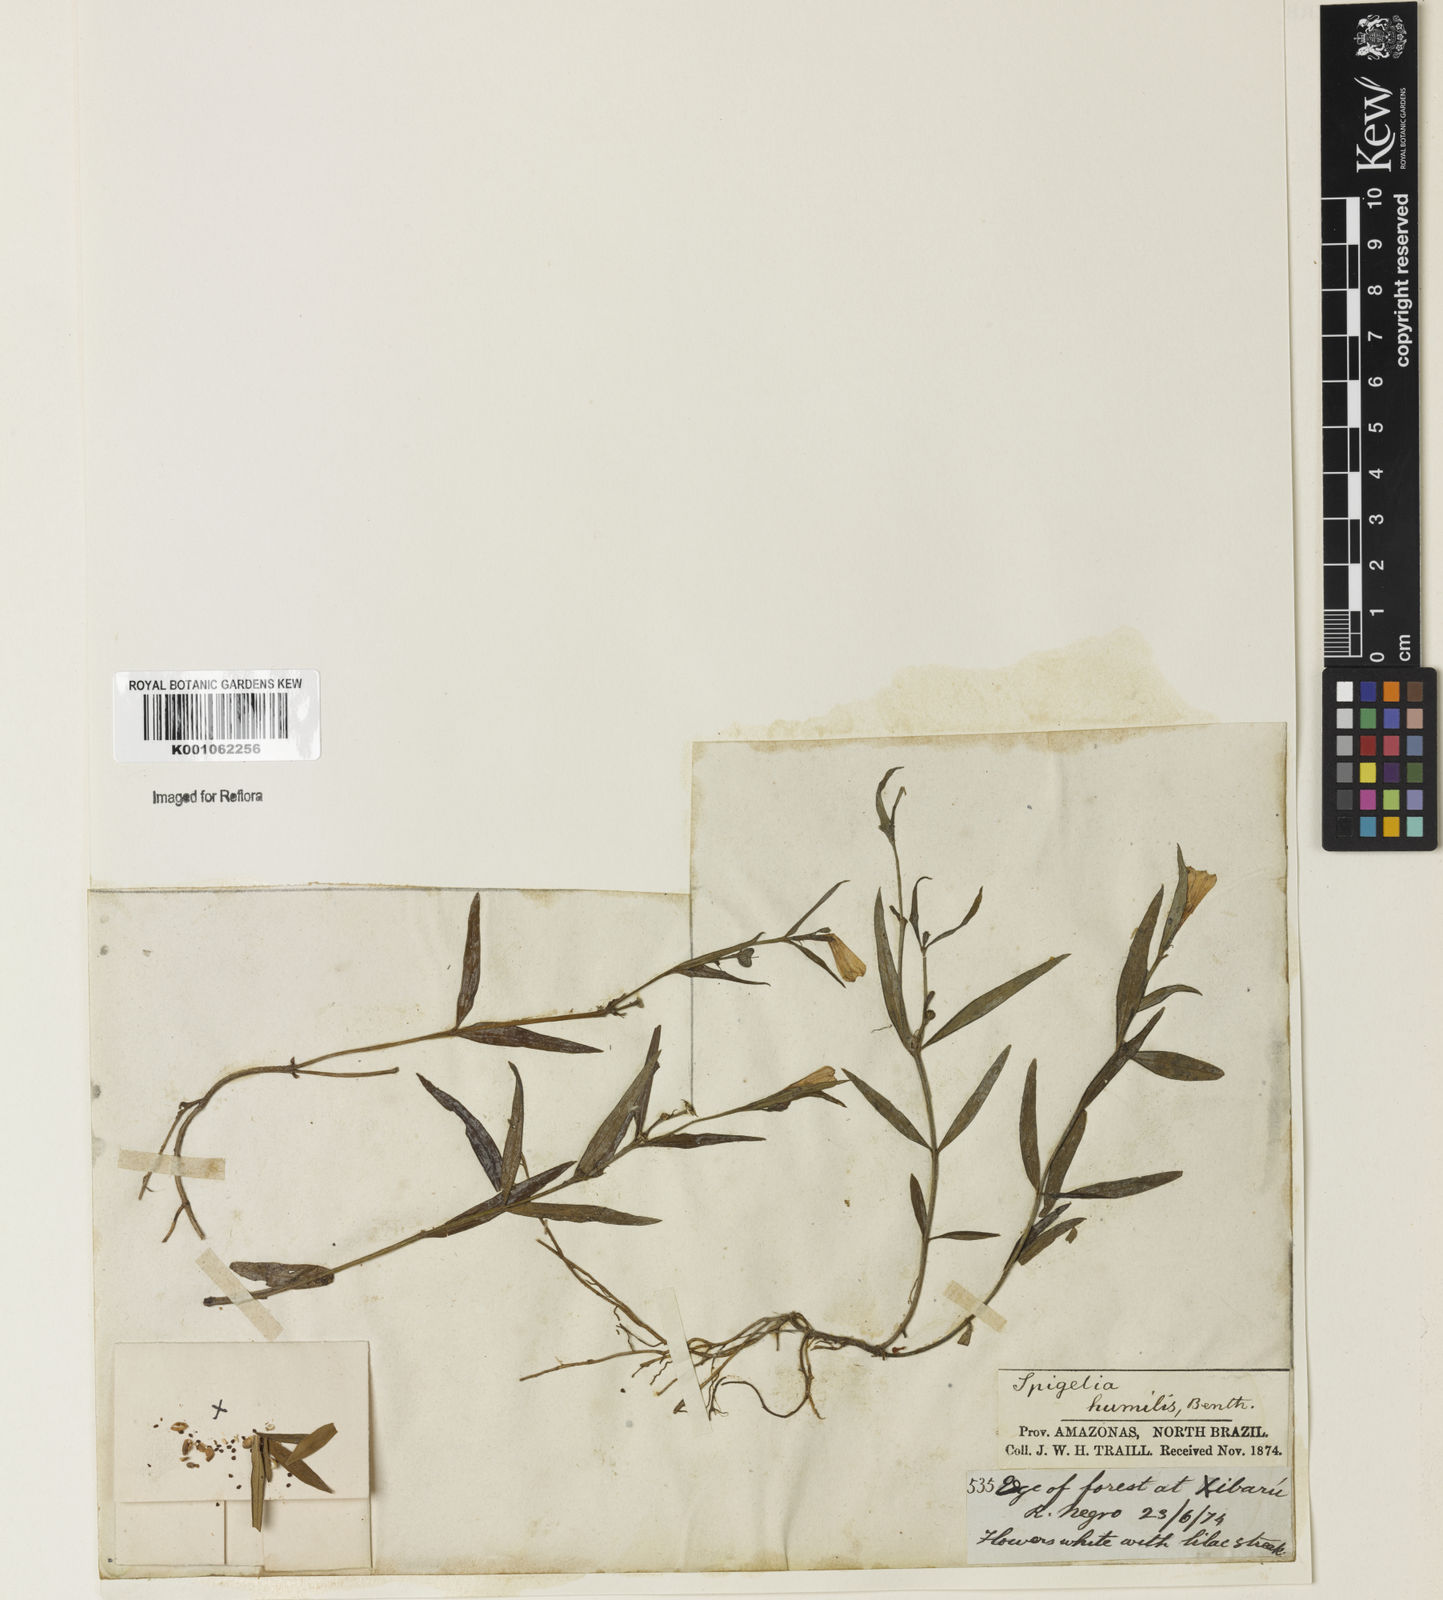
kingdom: Plantae
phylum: Tracheophyta
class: Magnoliopsida
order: Gentianales
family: Loganiaceae
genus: Spigelia
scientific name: Spigelia
